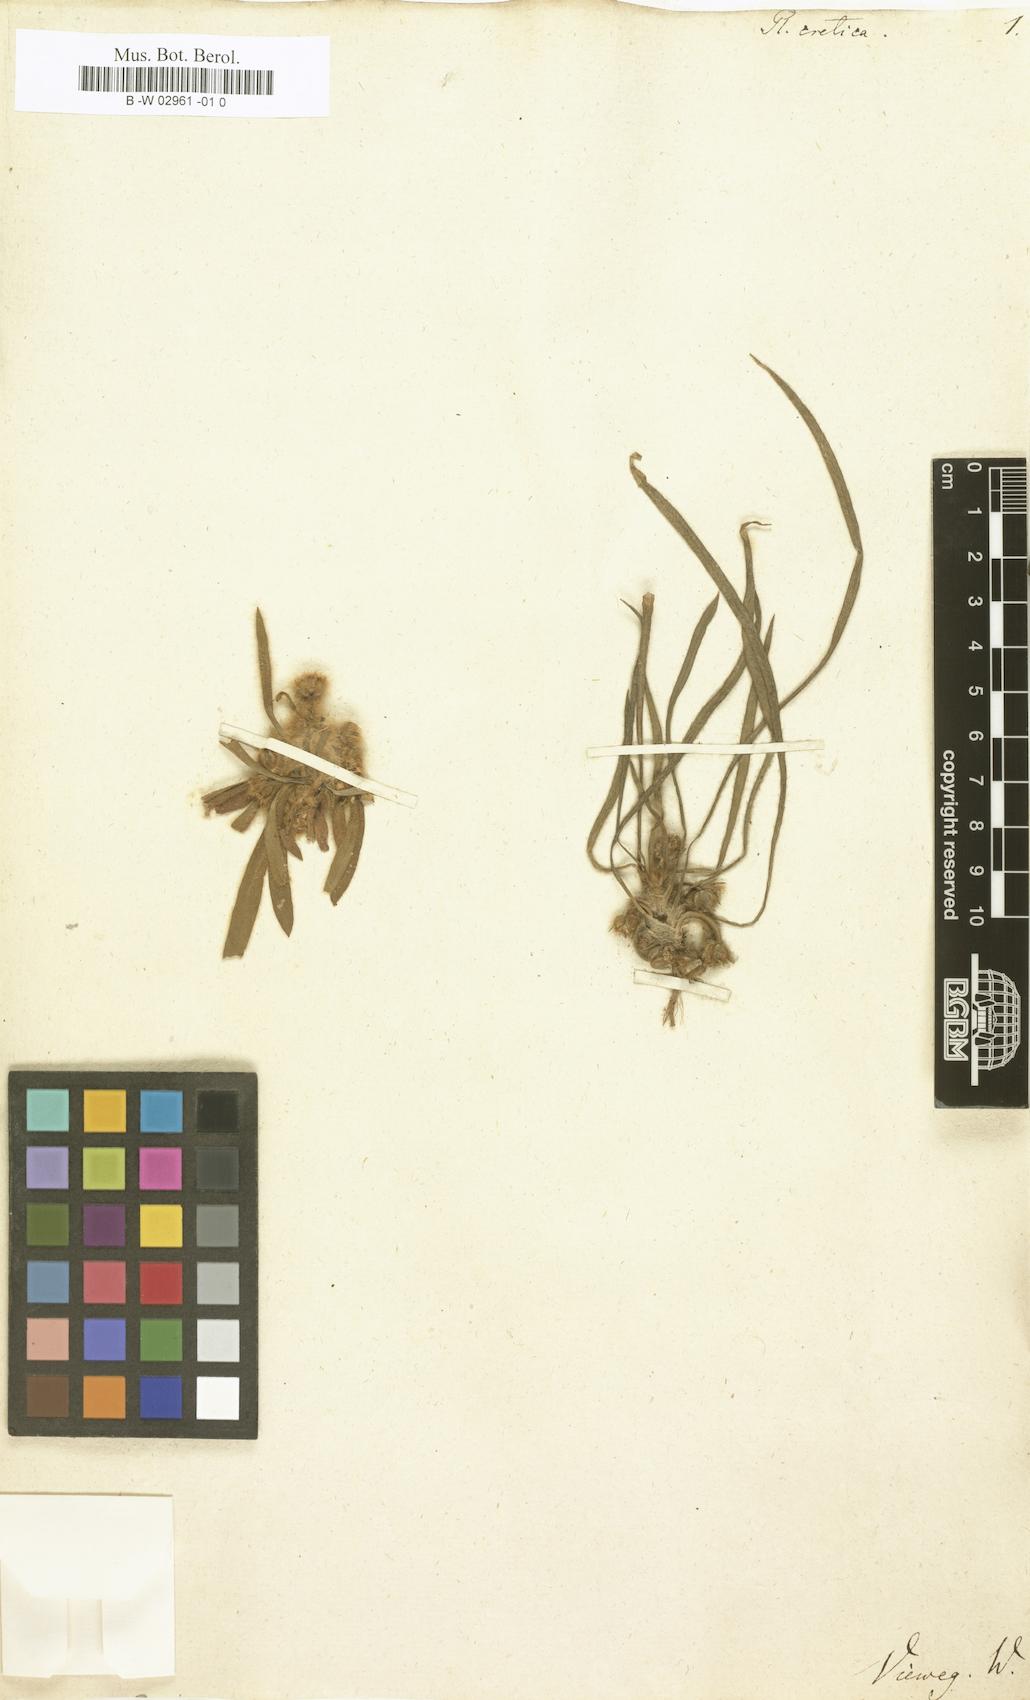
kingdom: Plantae
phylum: Tracheophyta
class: Magnoliopsida
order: Lamiales
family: Plantaginaceae
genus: Plantago
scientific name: Plantago cretica
